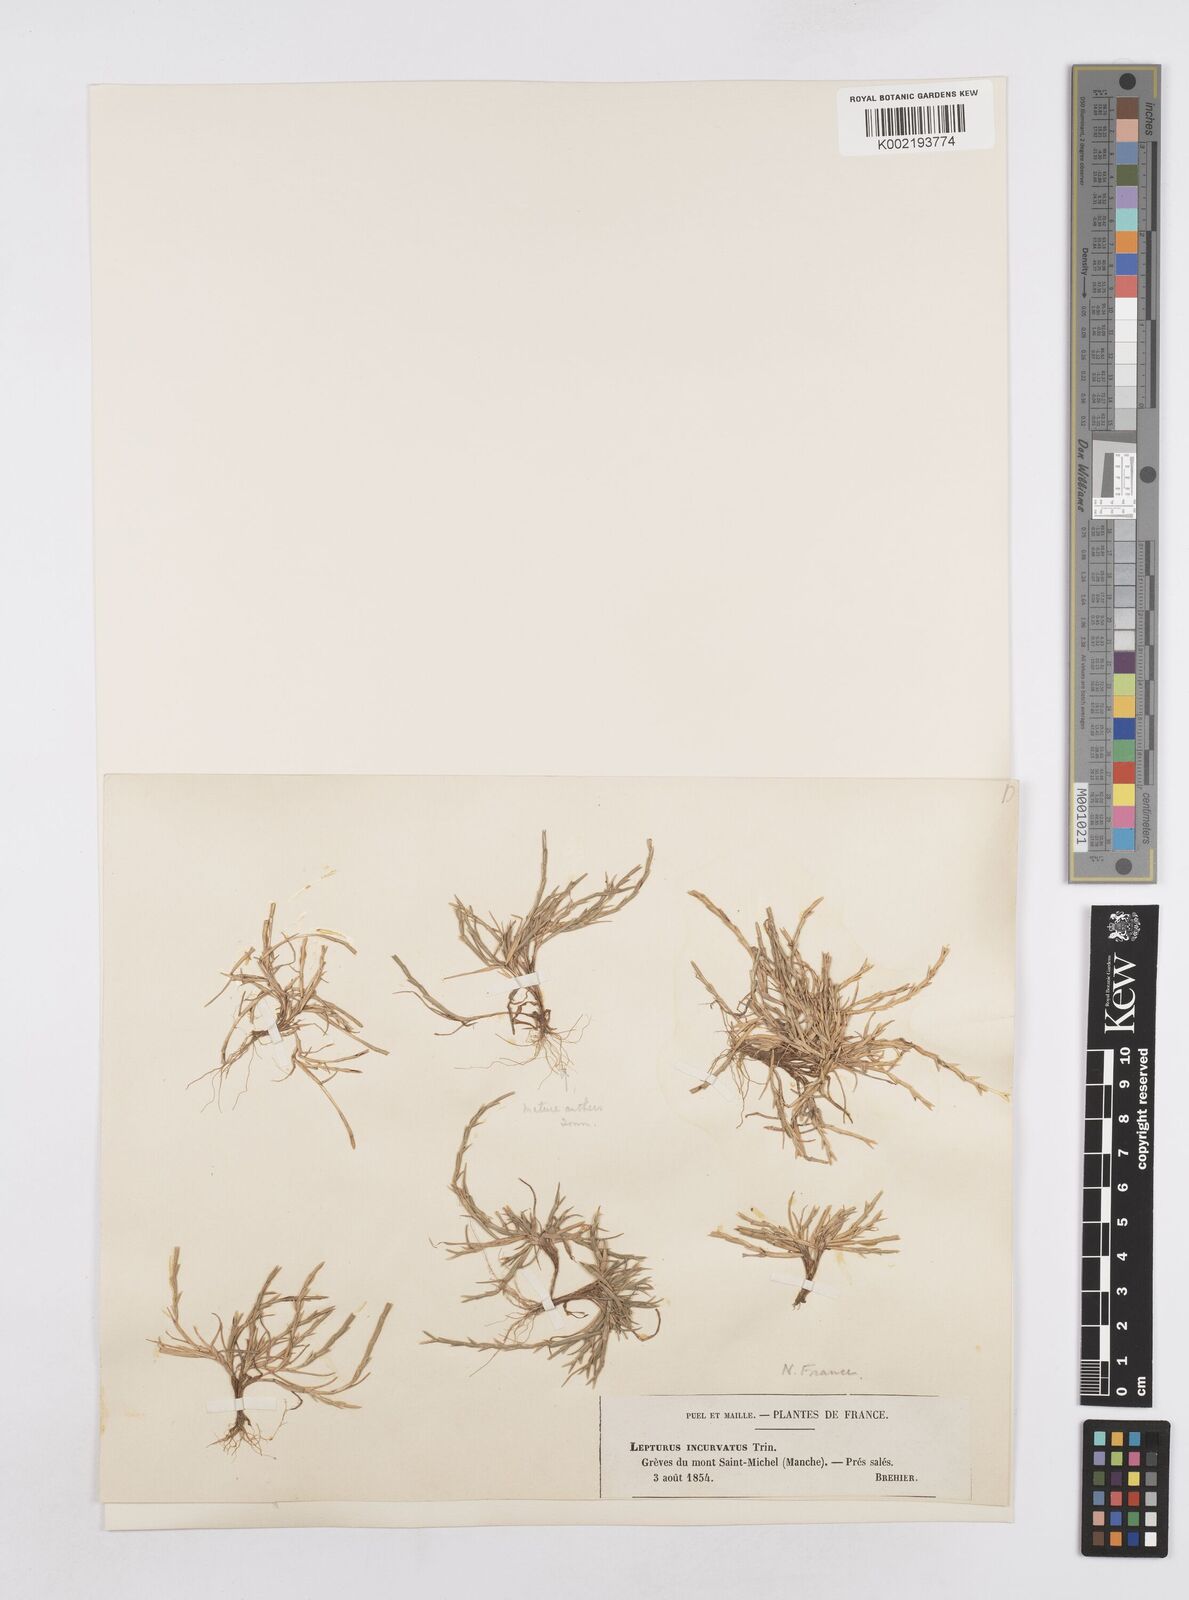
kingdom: Plantae
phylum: Tracheophyta
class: Liliopsida
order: Poales
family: Poaceae
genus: Parapholis
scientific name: Parapholis strigosa
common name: Hard-grass
